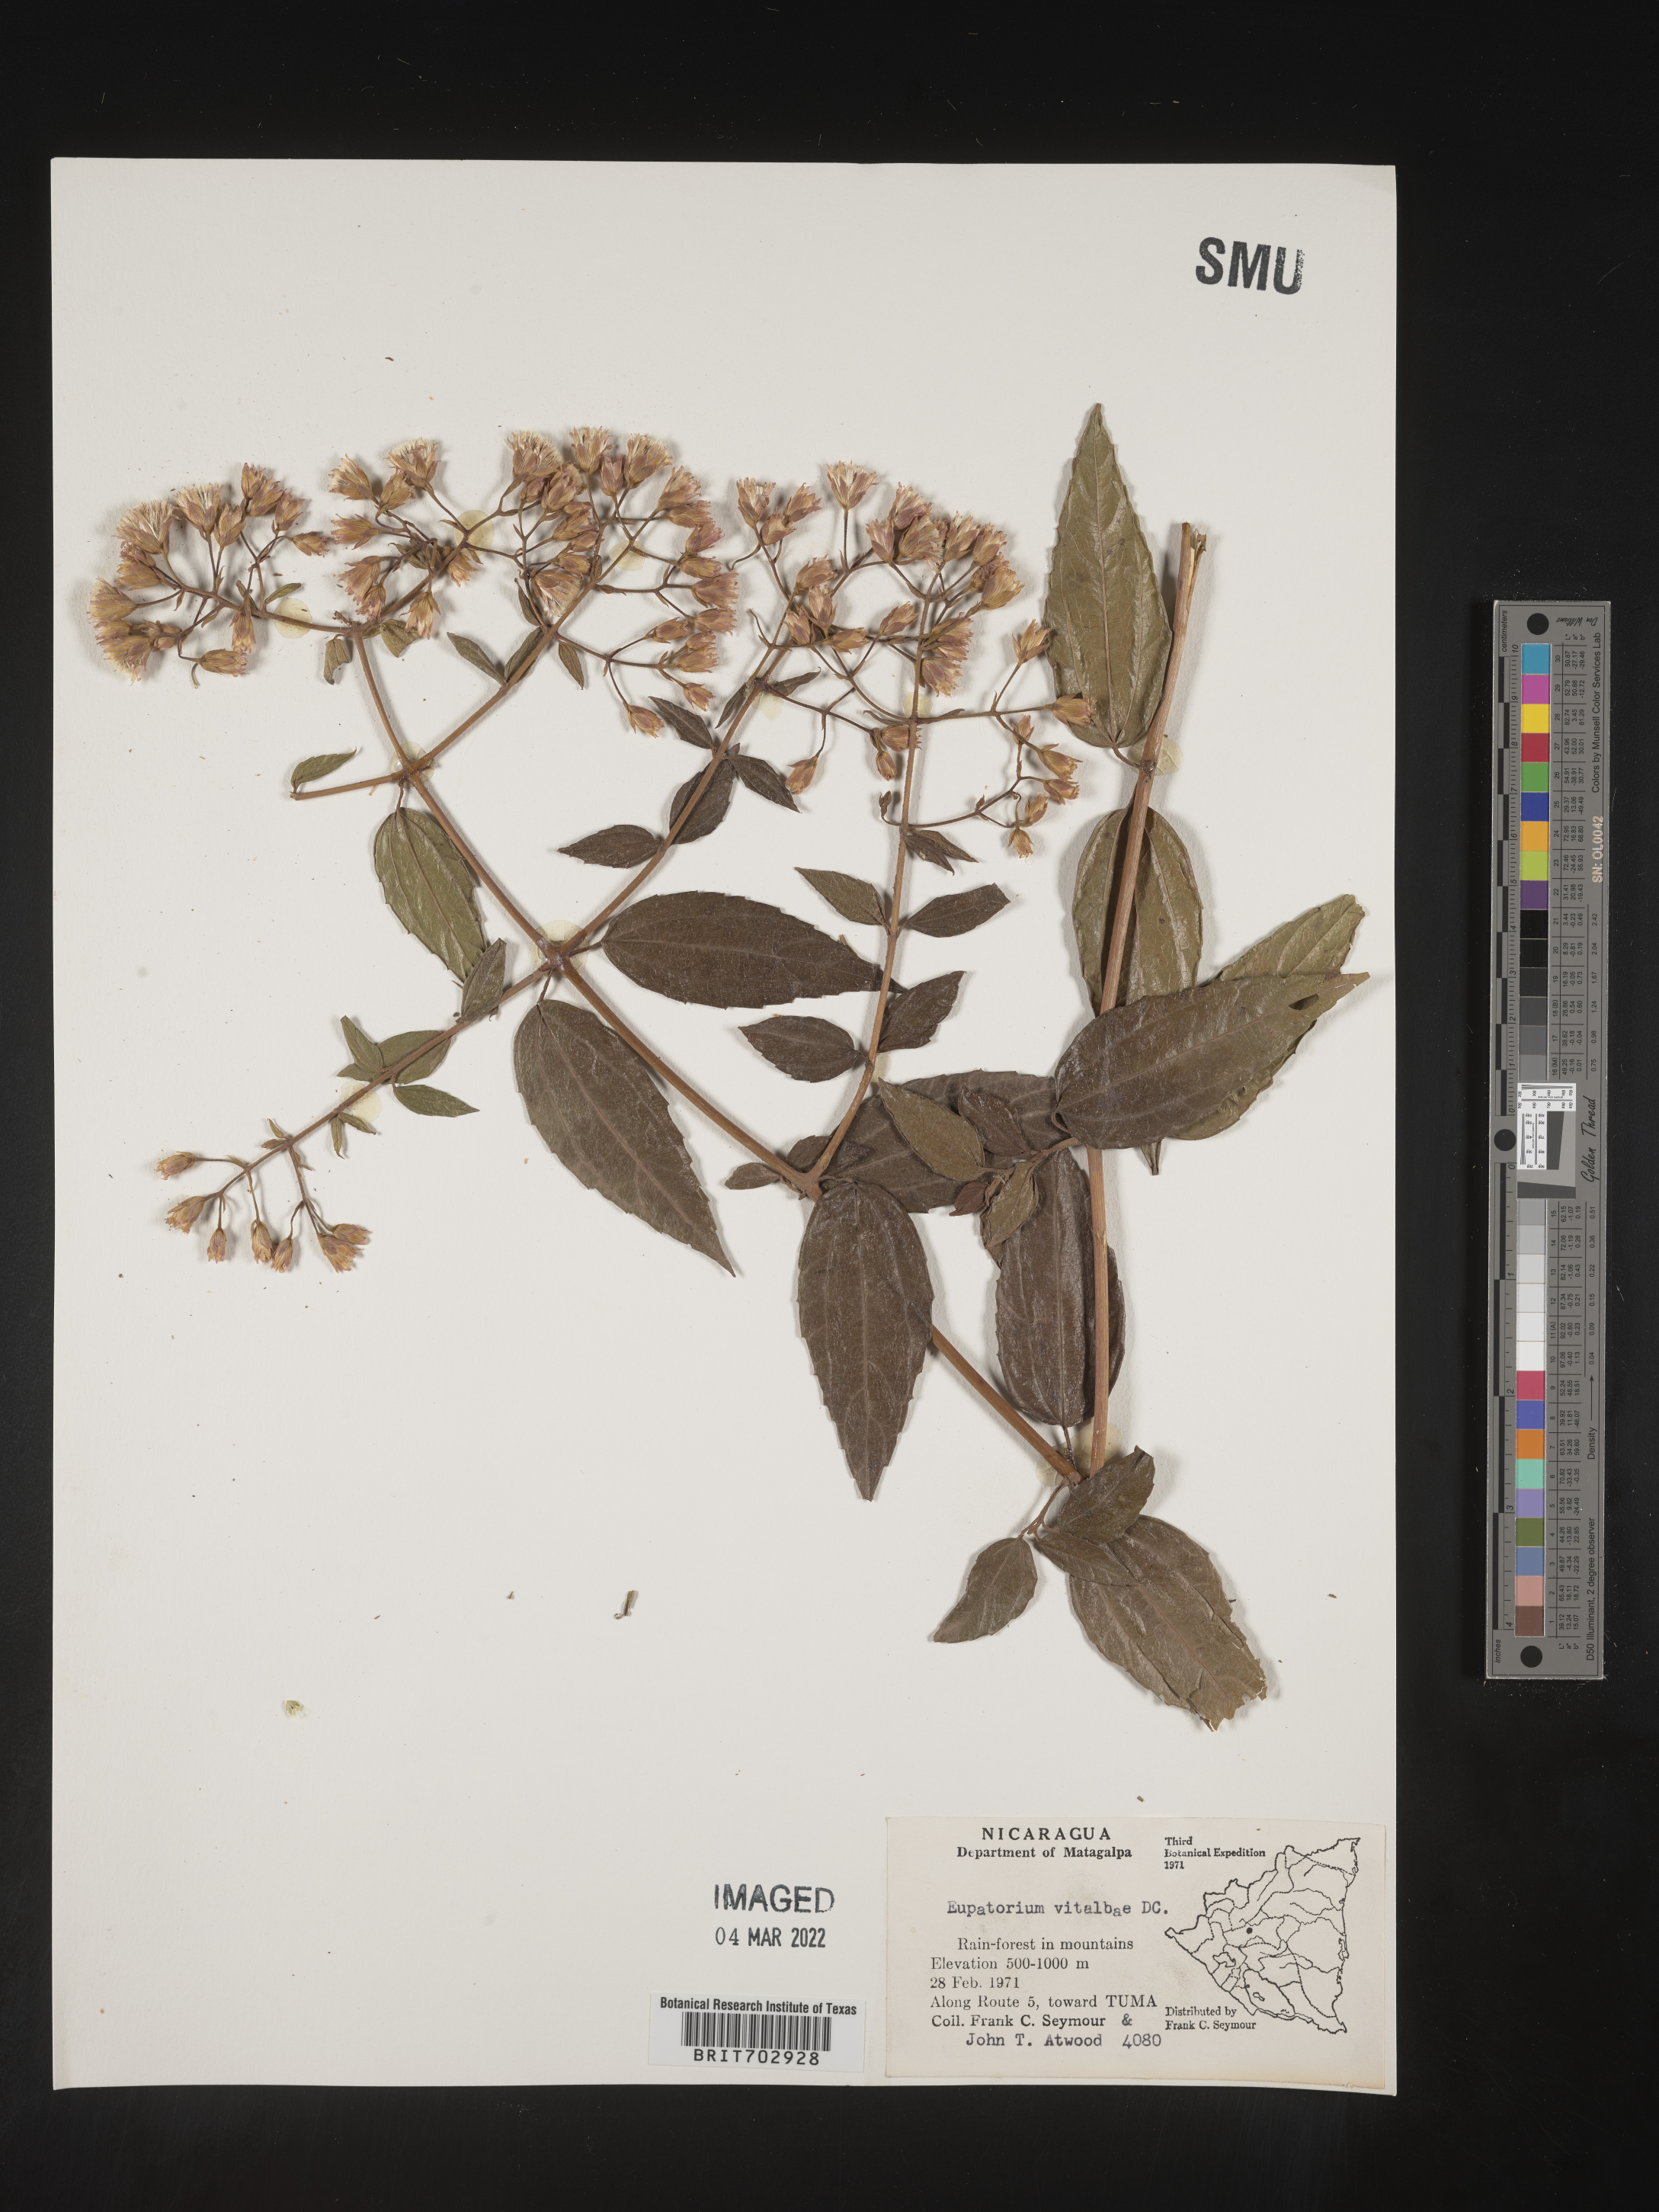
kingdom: Plantae
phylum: Tracheophyta
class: Magnoliopsida
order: Asterales
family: Asteraceae
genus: Eupatorium
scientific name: Eupatorium
